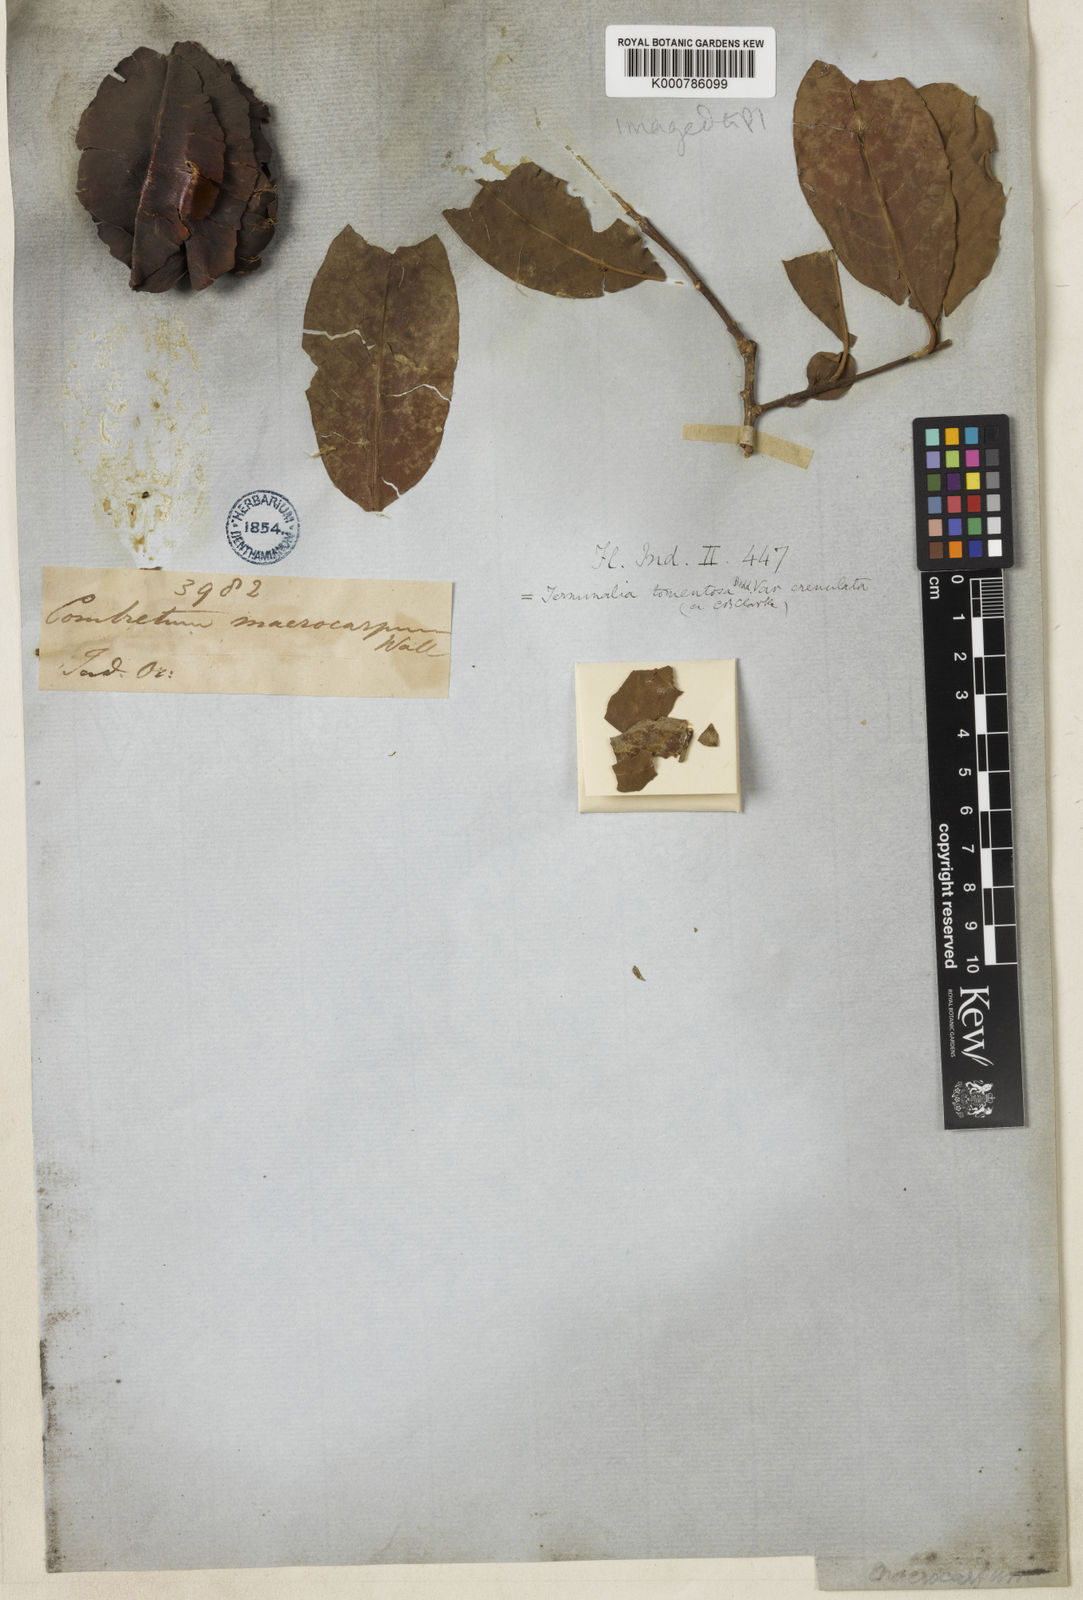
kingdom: Plantae
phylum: Tracheophyta
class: Magnoliopsida
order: Myrtales
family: Combretaceae
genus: Terminalia
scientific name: Terminalia macrocarpa
